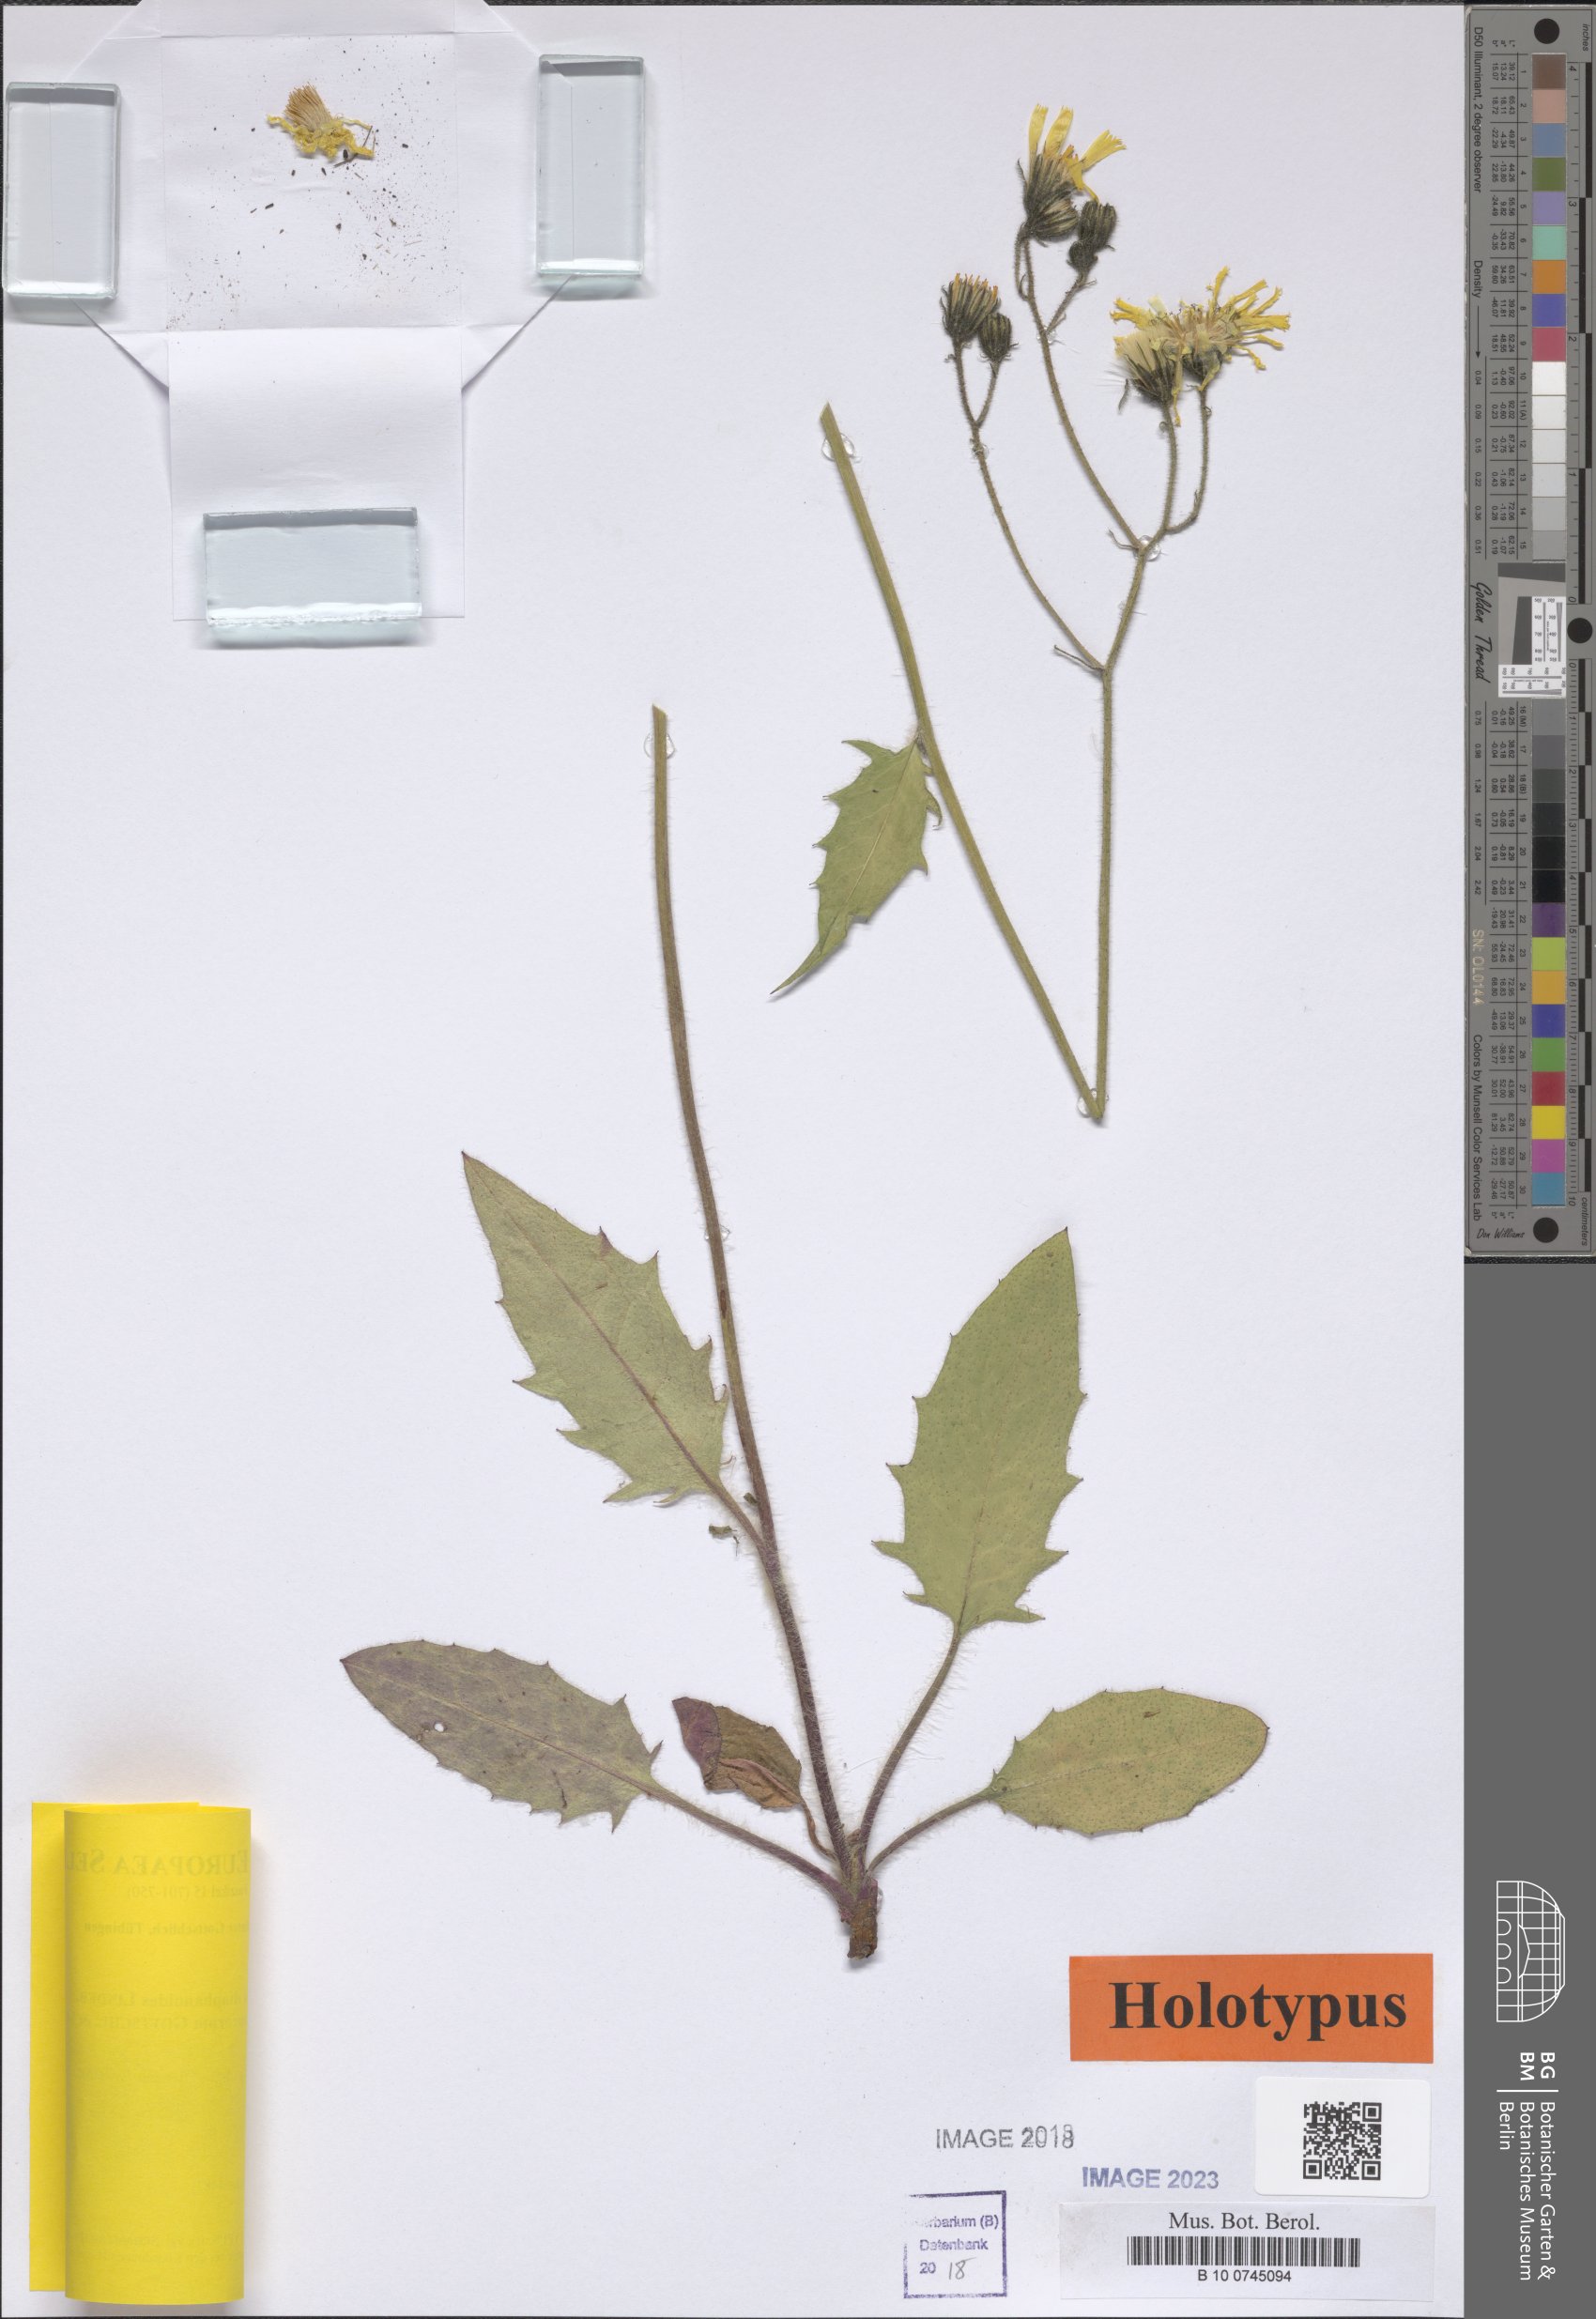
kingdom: Plantae
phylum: Tracheophyta
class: Magnoliopsida
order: Asterales
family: Asteraceae
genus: Hieracium
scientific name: Hieracium diaphanoides
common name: Fine-bracted hawkweed
